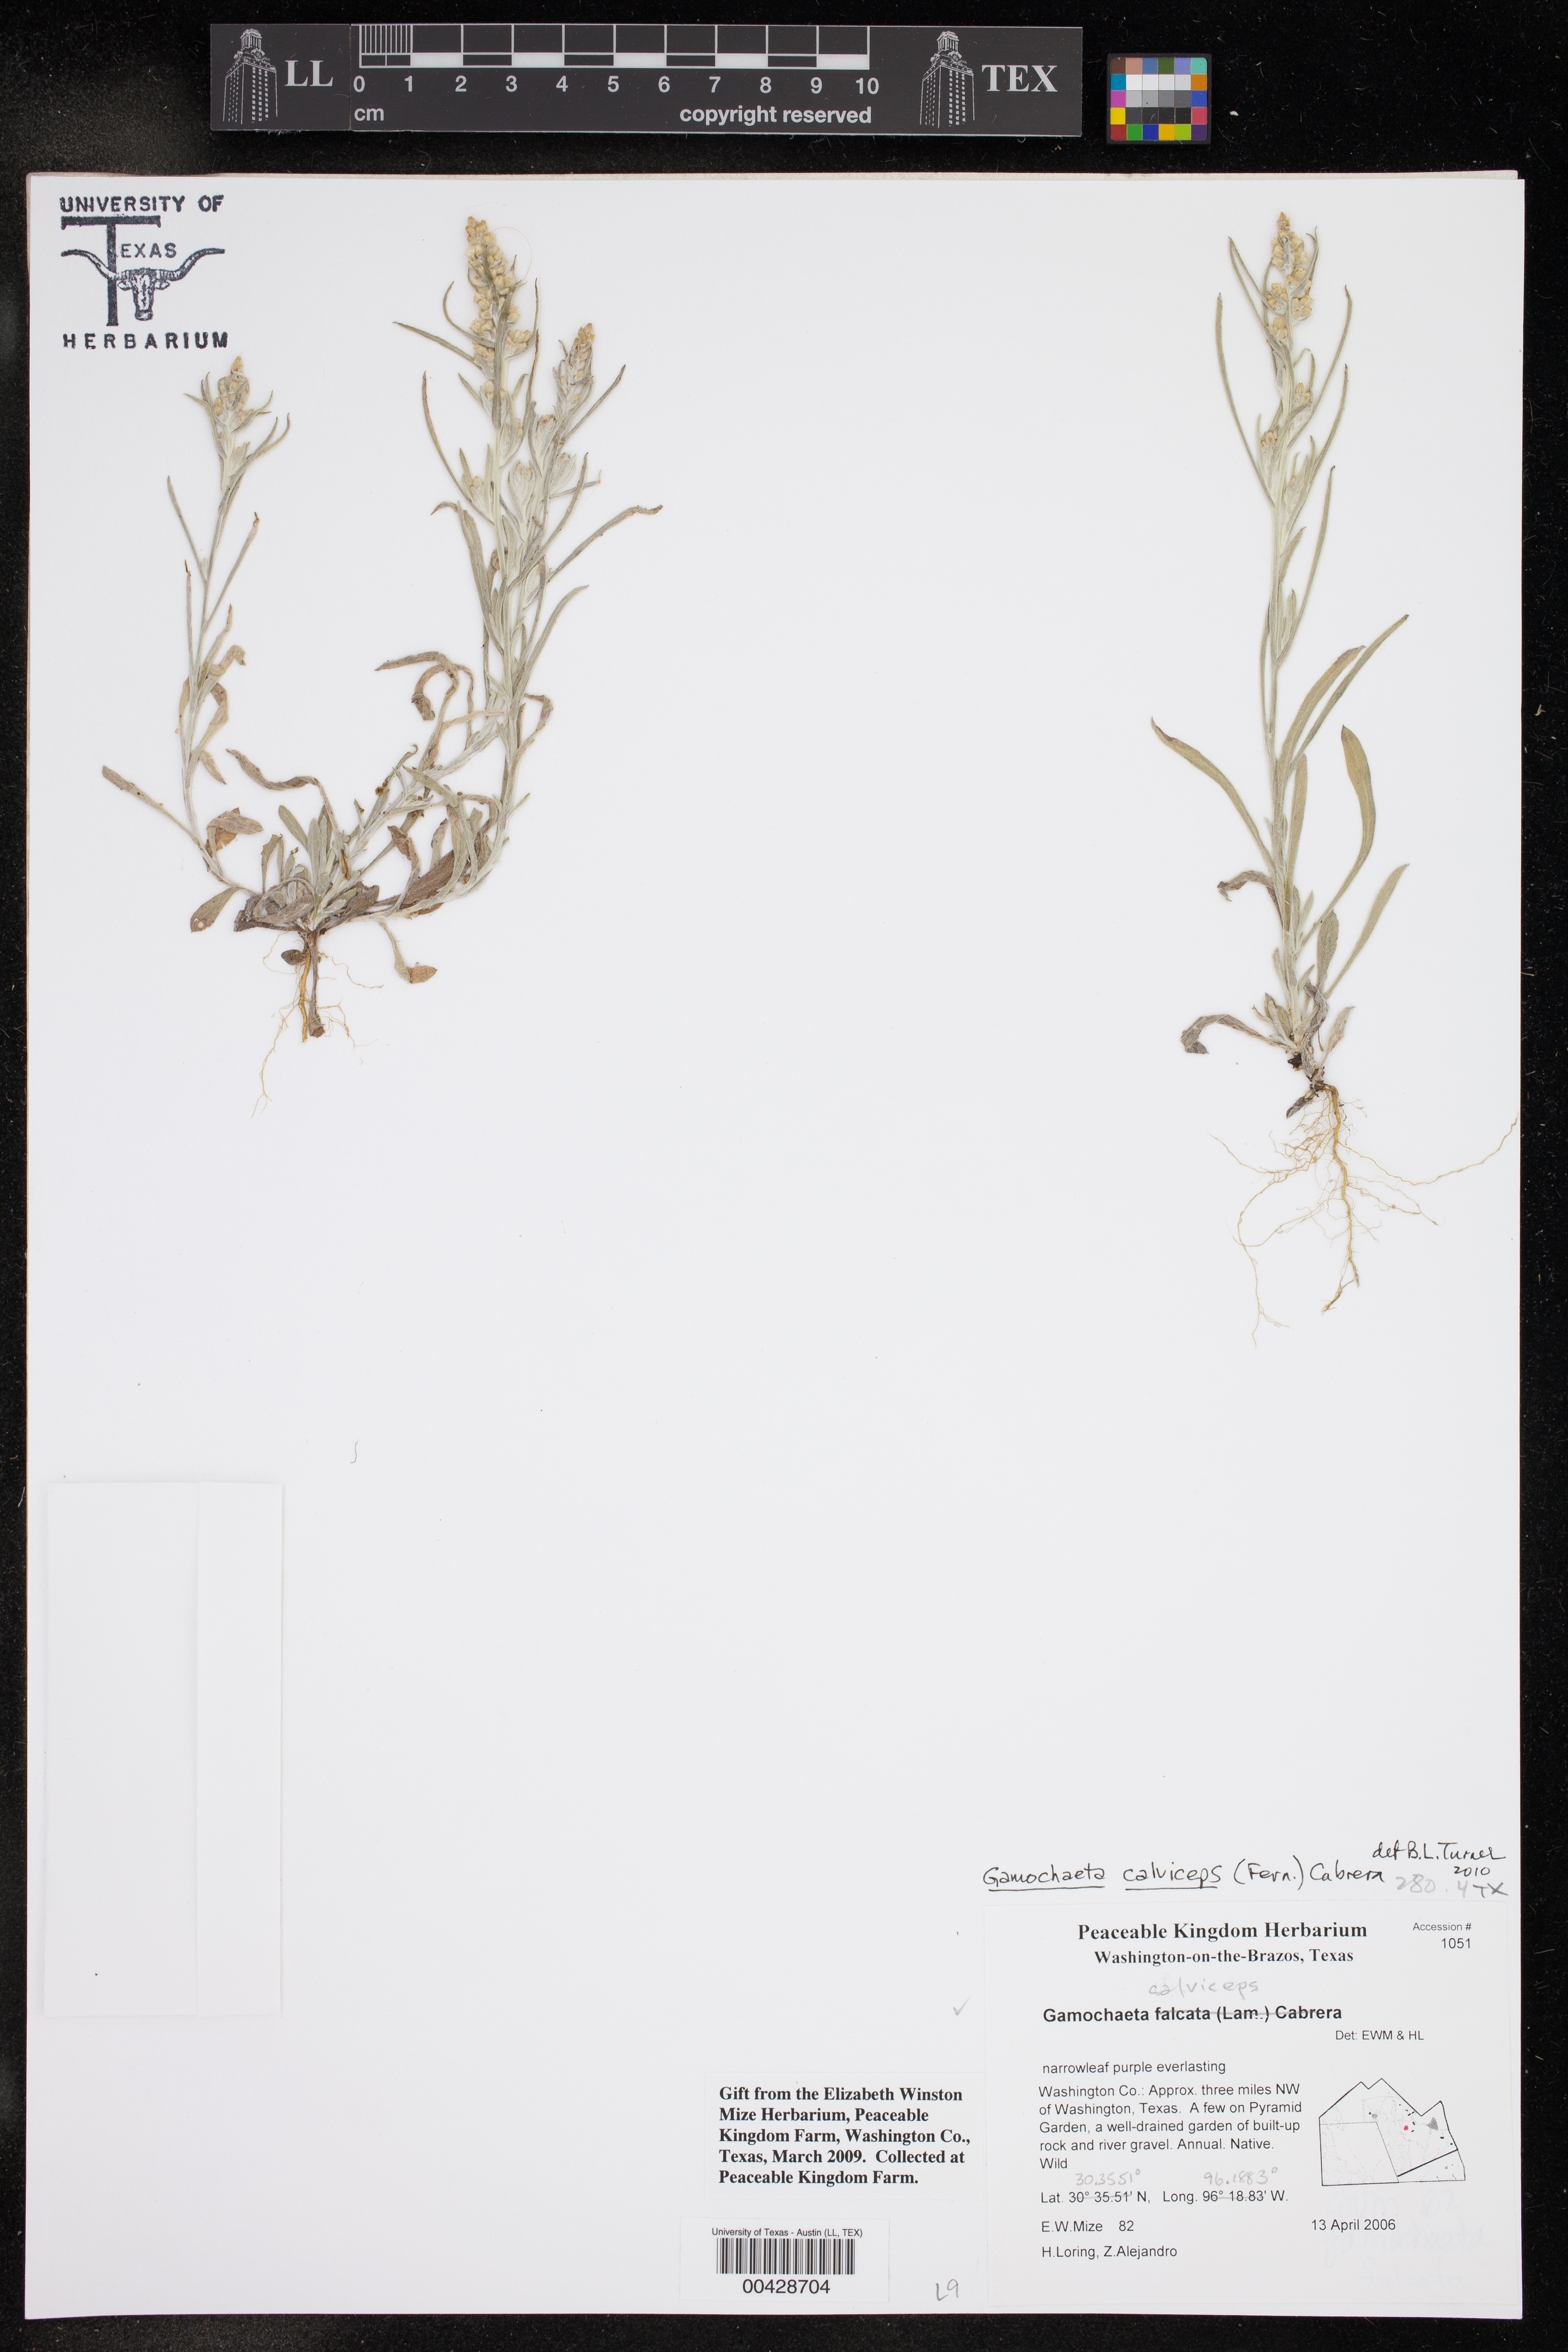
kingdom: Plantae
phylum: Tracheophyta
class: Magnoliopsida
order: Asterales
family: Asteraceae
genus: Gamochaeta
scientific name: Gamochaeta calviceps
